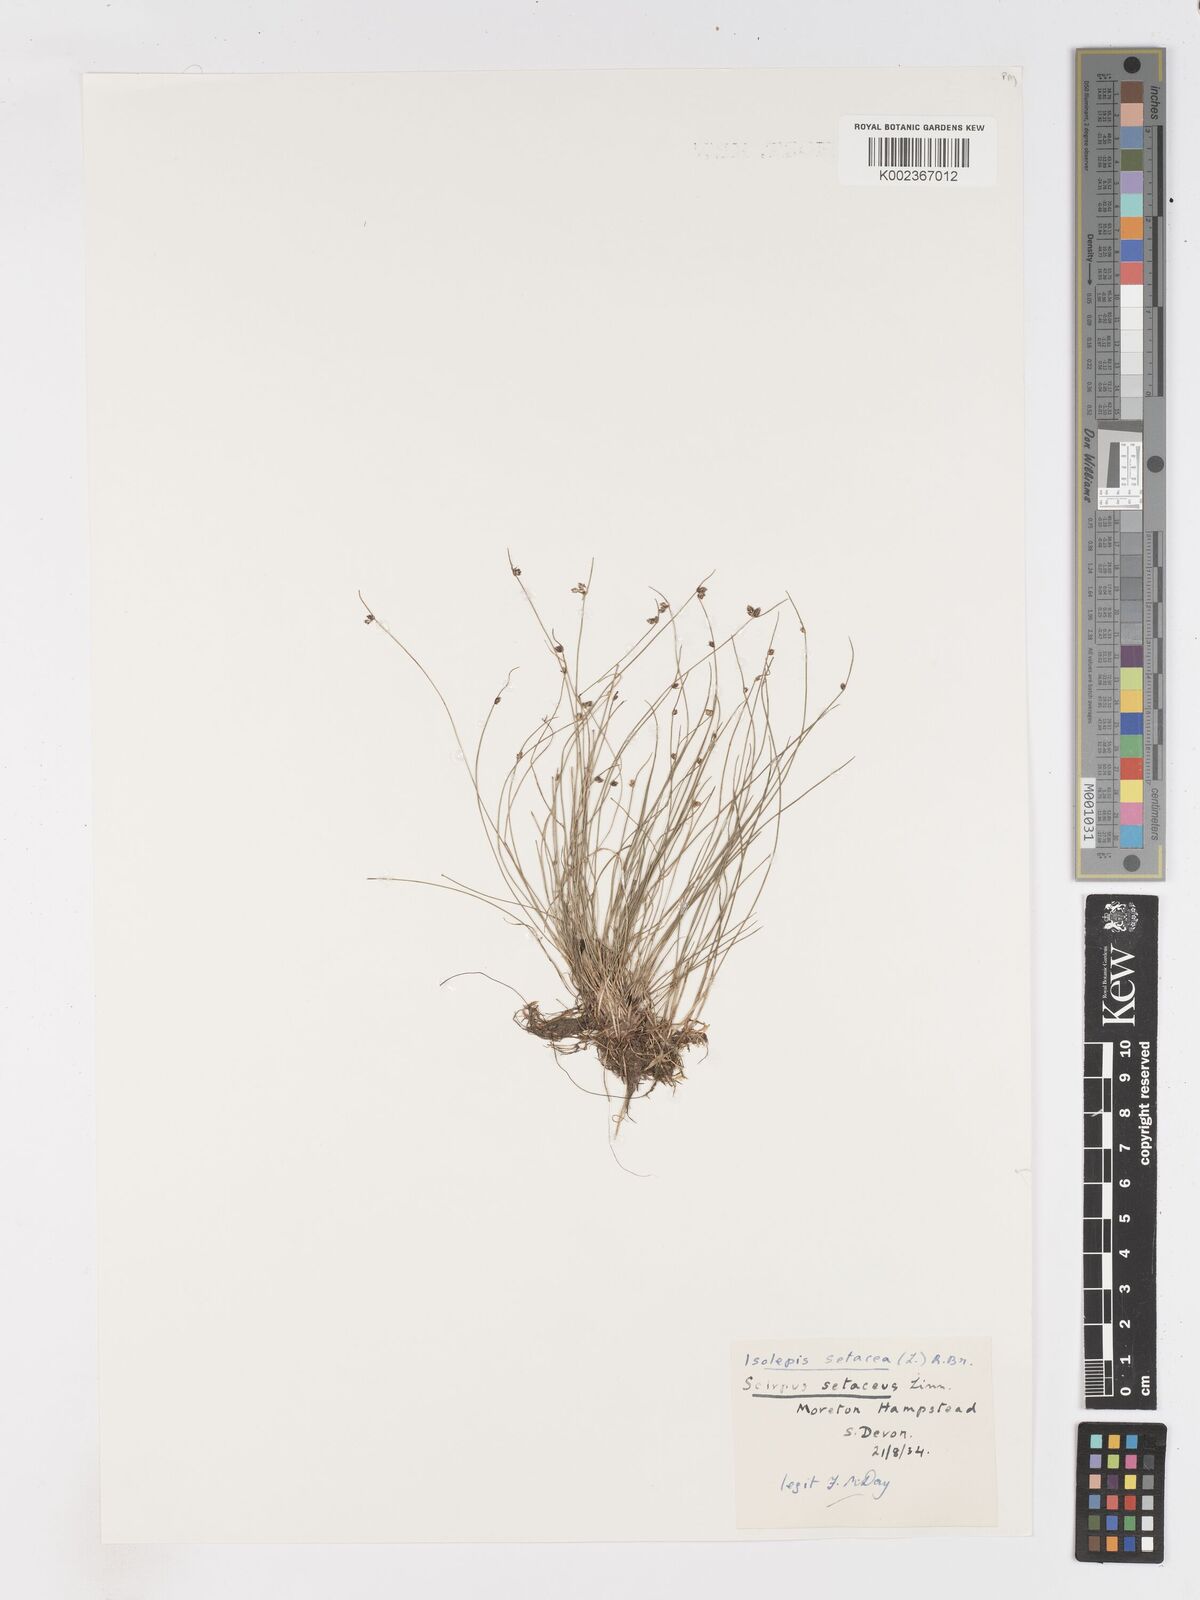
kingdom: Plantae
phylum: Tracheophyta
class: Liliopsida
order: Poales
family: Cyperaceae
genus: Isolepis
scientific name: Isolepis setacea
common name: Bristle club-rush
